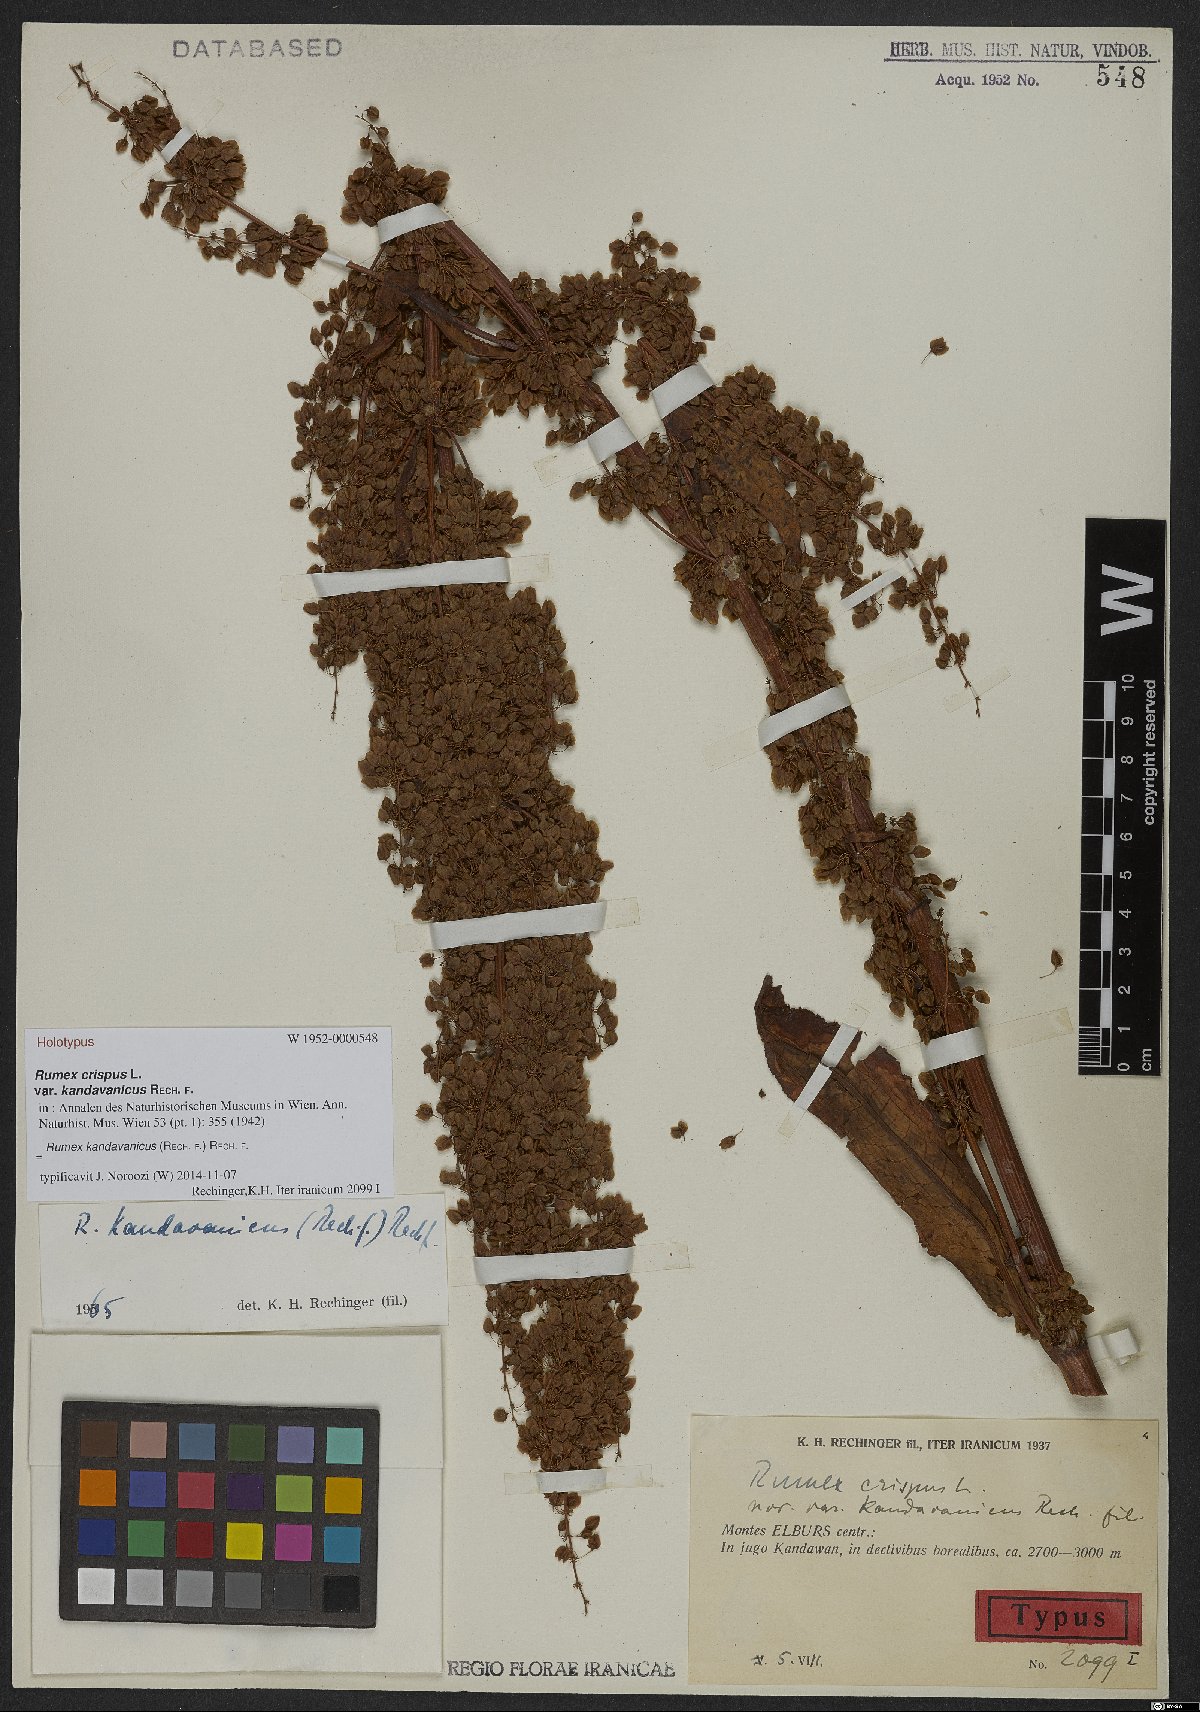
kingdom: Plantae
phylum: Tracheophyta
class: Magnoliopsida
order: Caryophyllales
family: Polygonaceae
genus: Rumex
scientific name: Rumex kandavanicus
